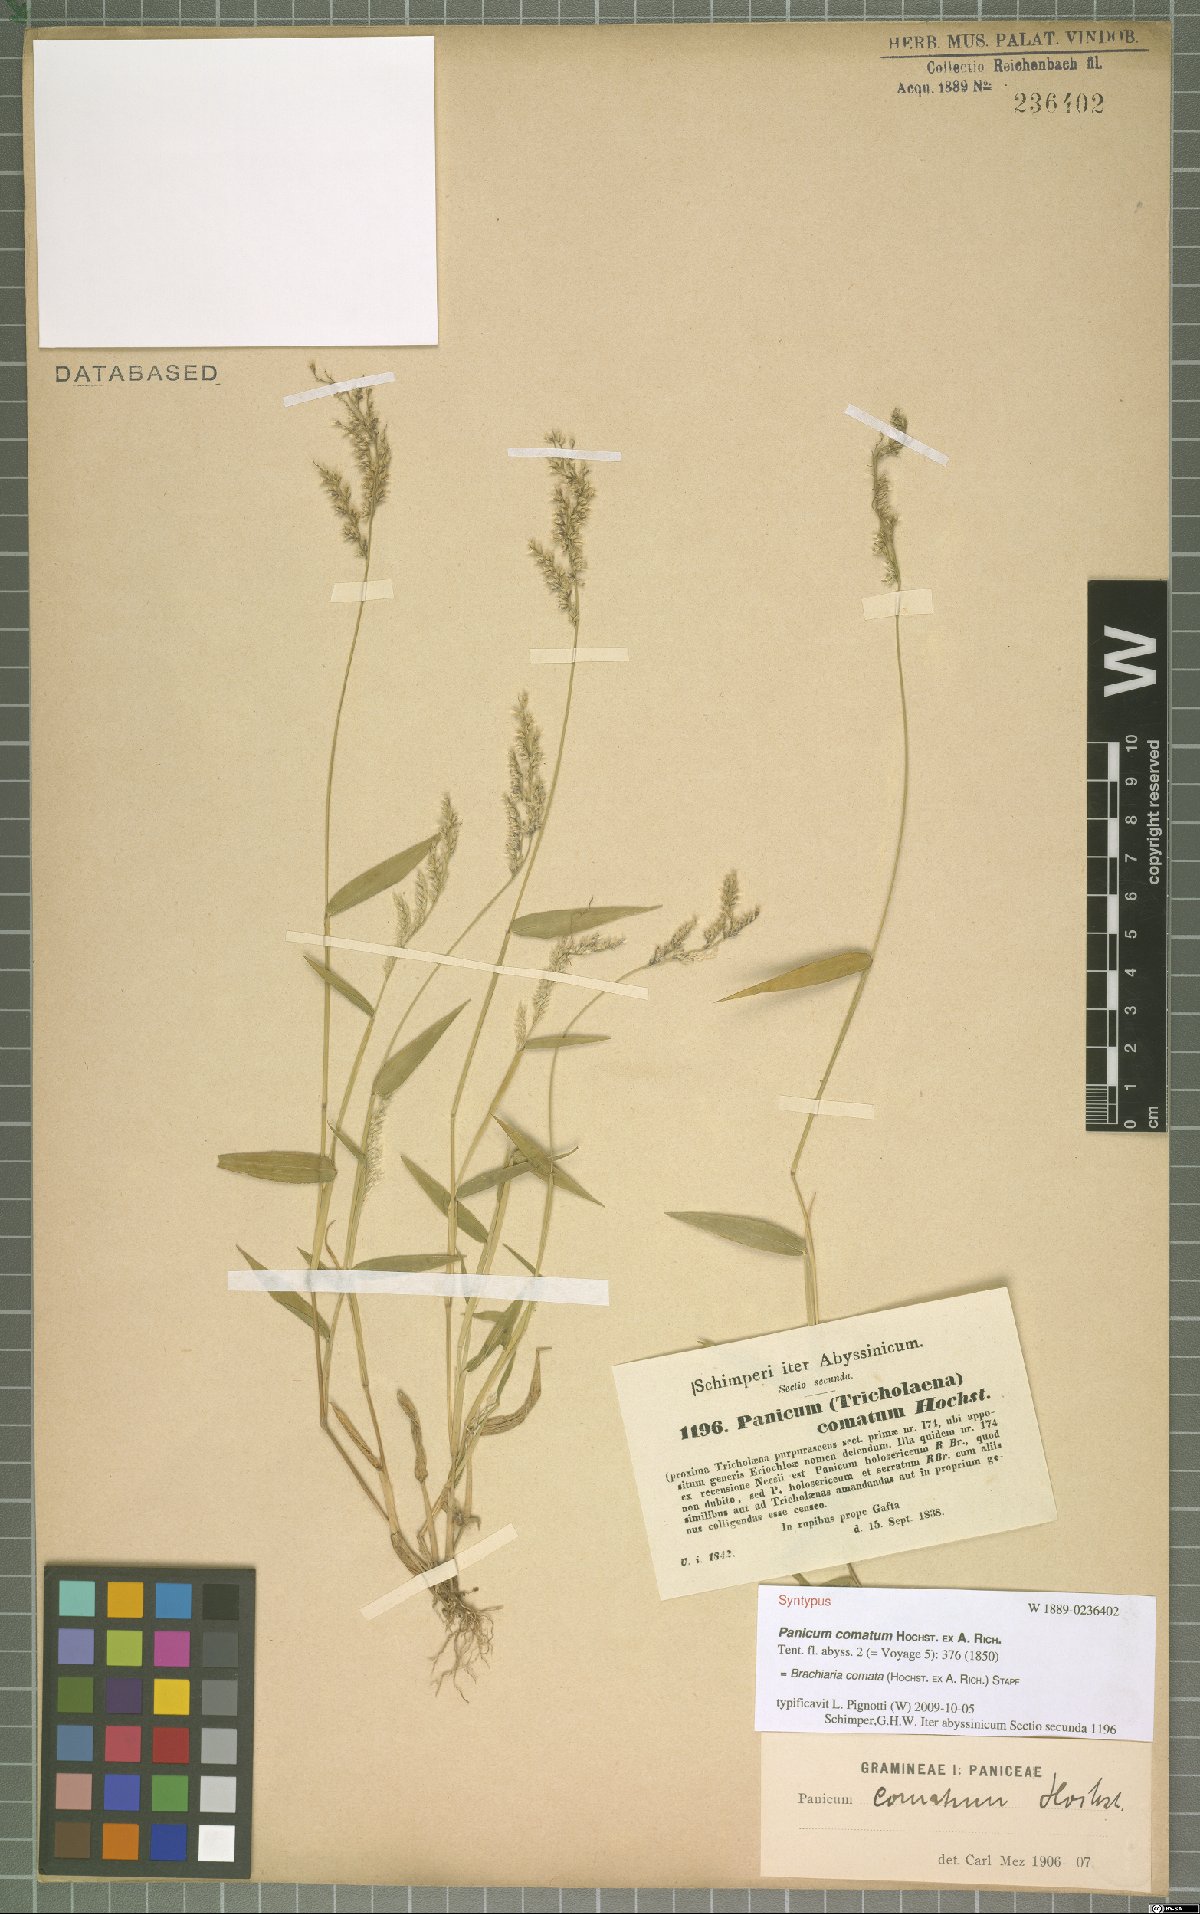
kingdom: Plantae
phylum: Tracheophyta
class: Liliopsida
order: Poales
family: Poaceae
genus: Urochloa
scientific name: Urochloa comata
